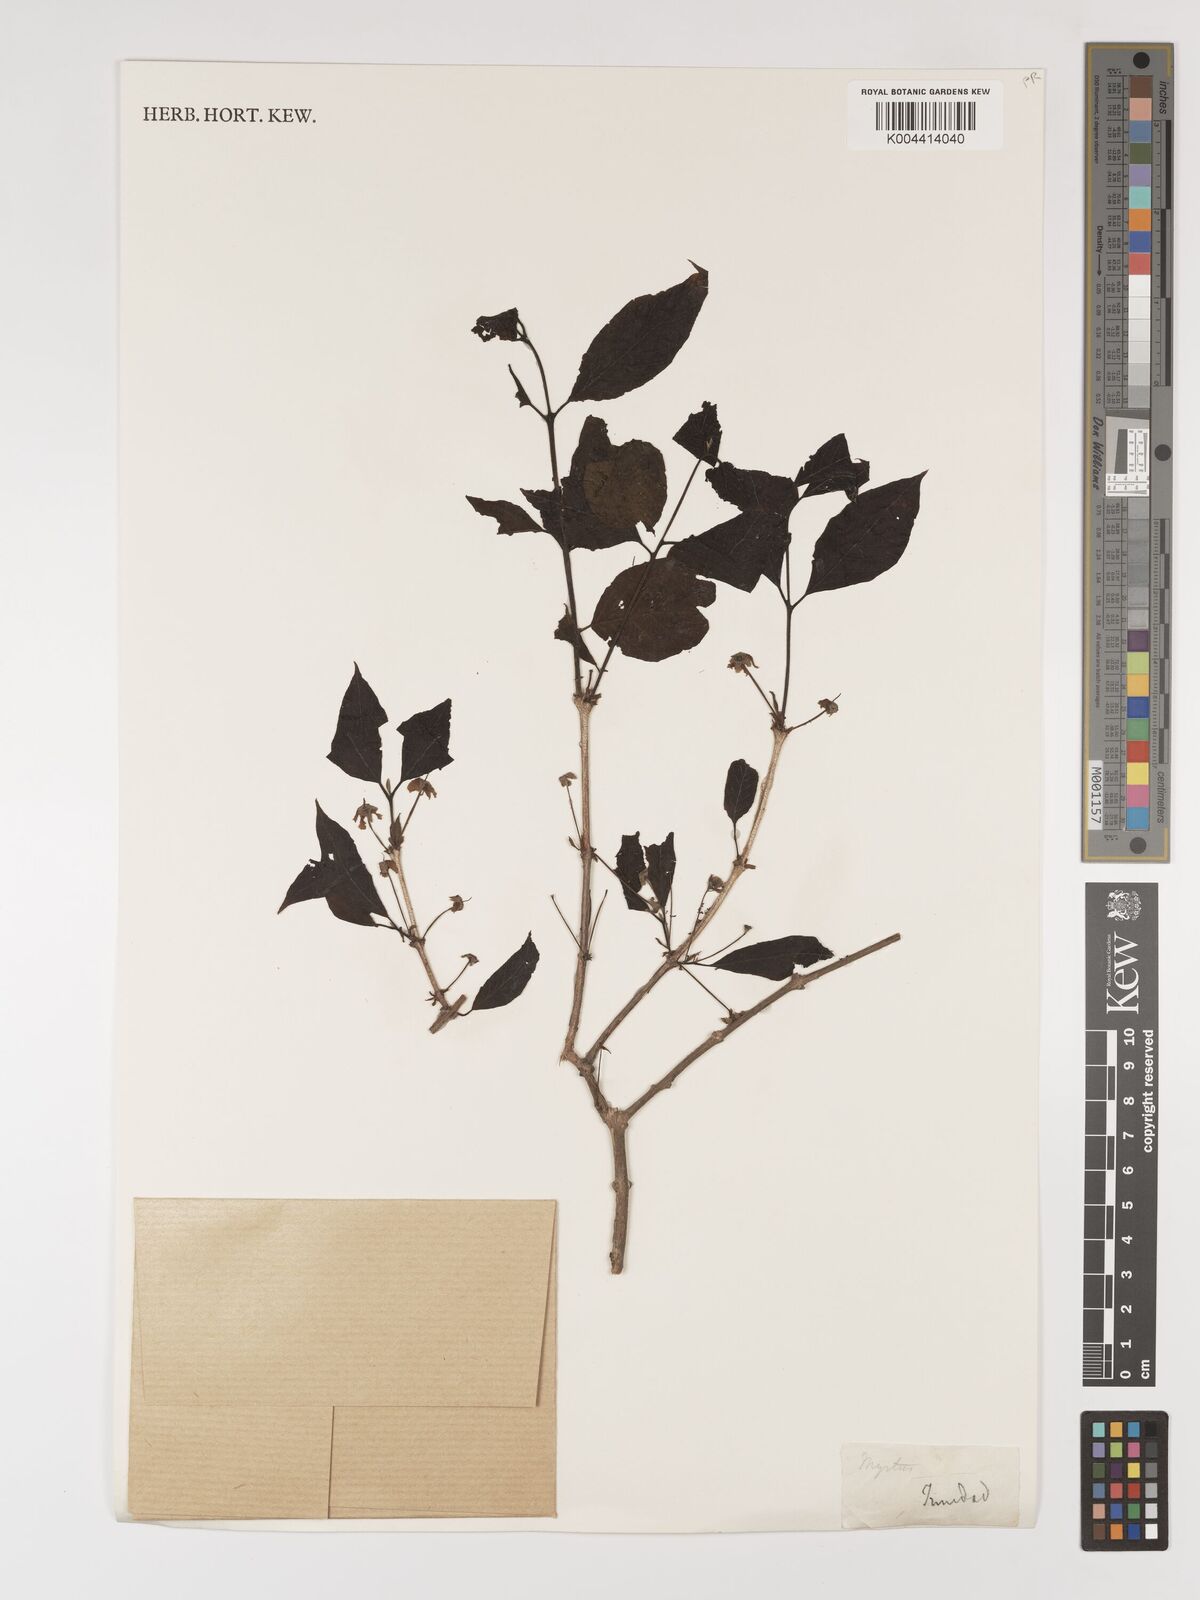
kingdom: Plantae
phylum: Tracheophyta
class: Magnoliopsida
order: Myrtales
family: Myrtaceae
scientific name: Myrtaceae
